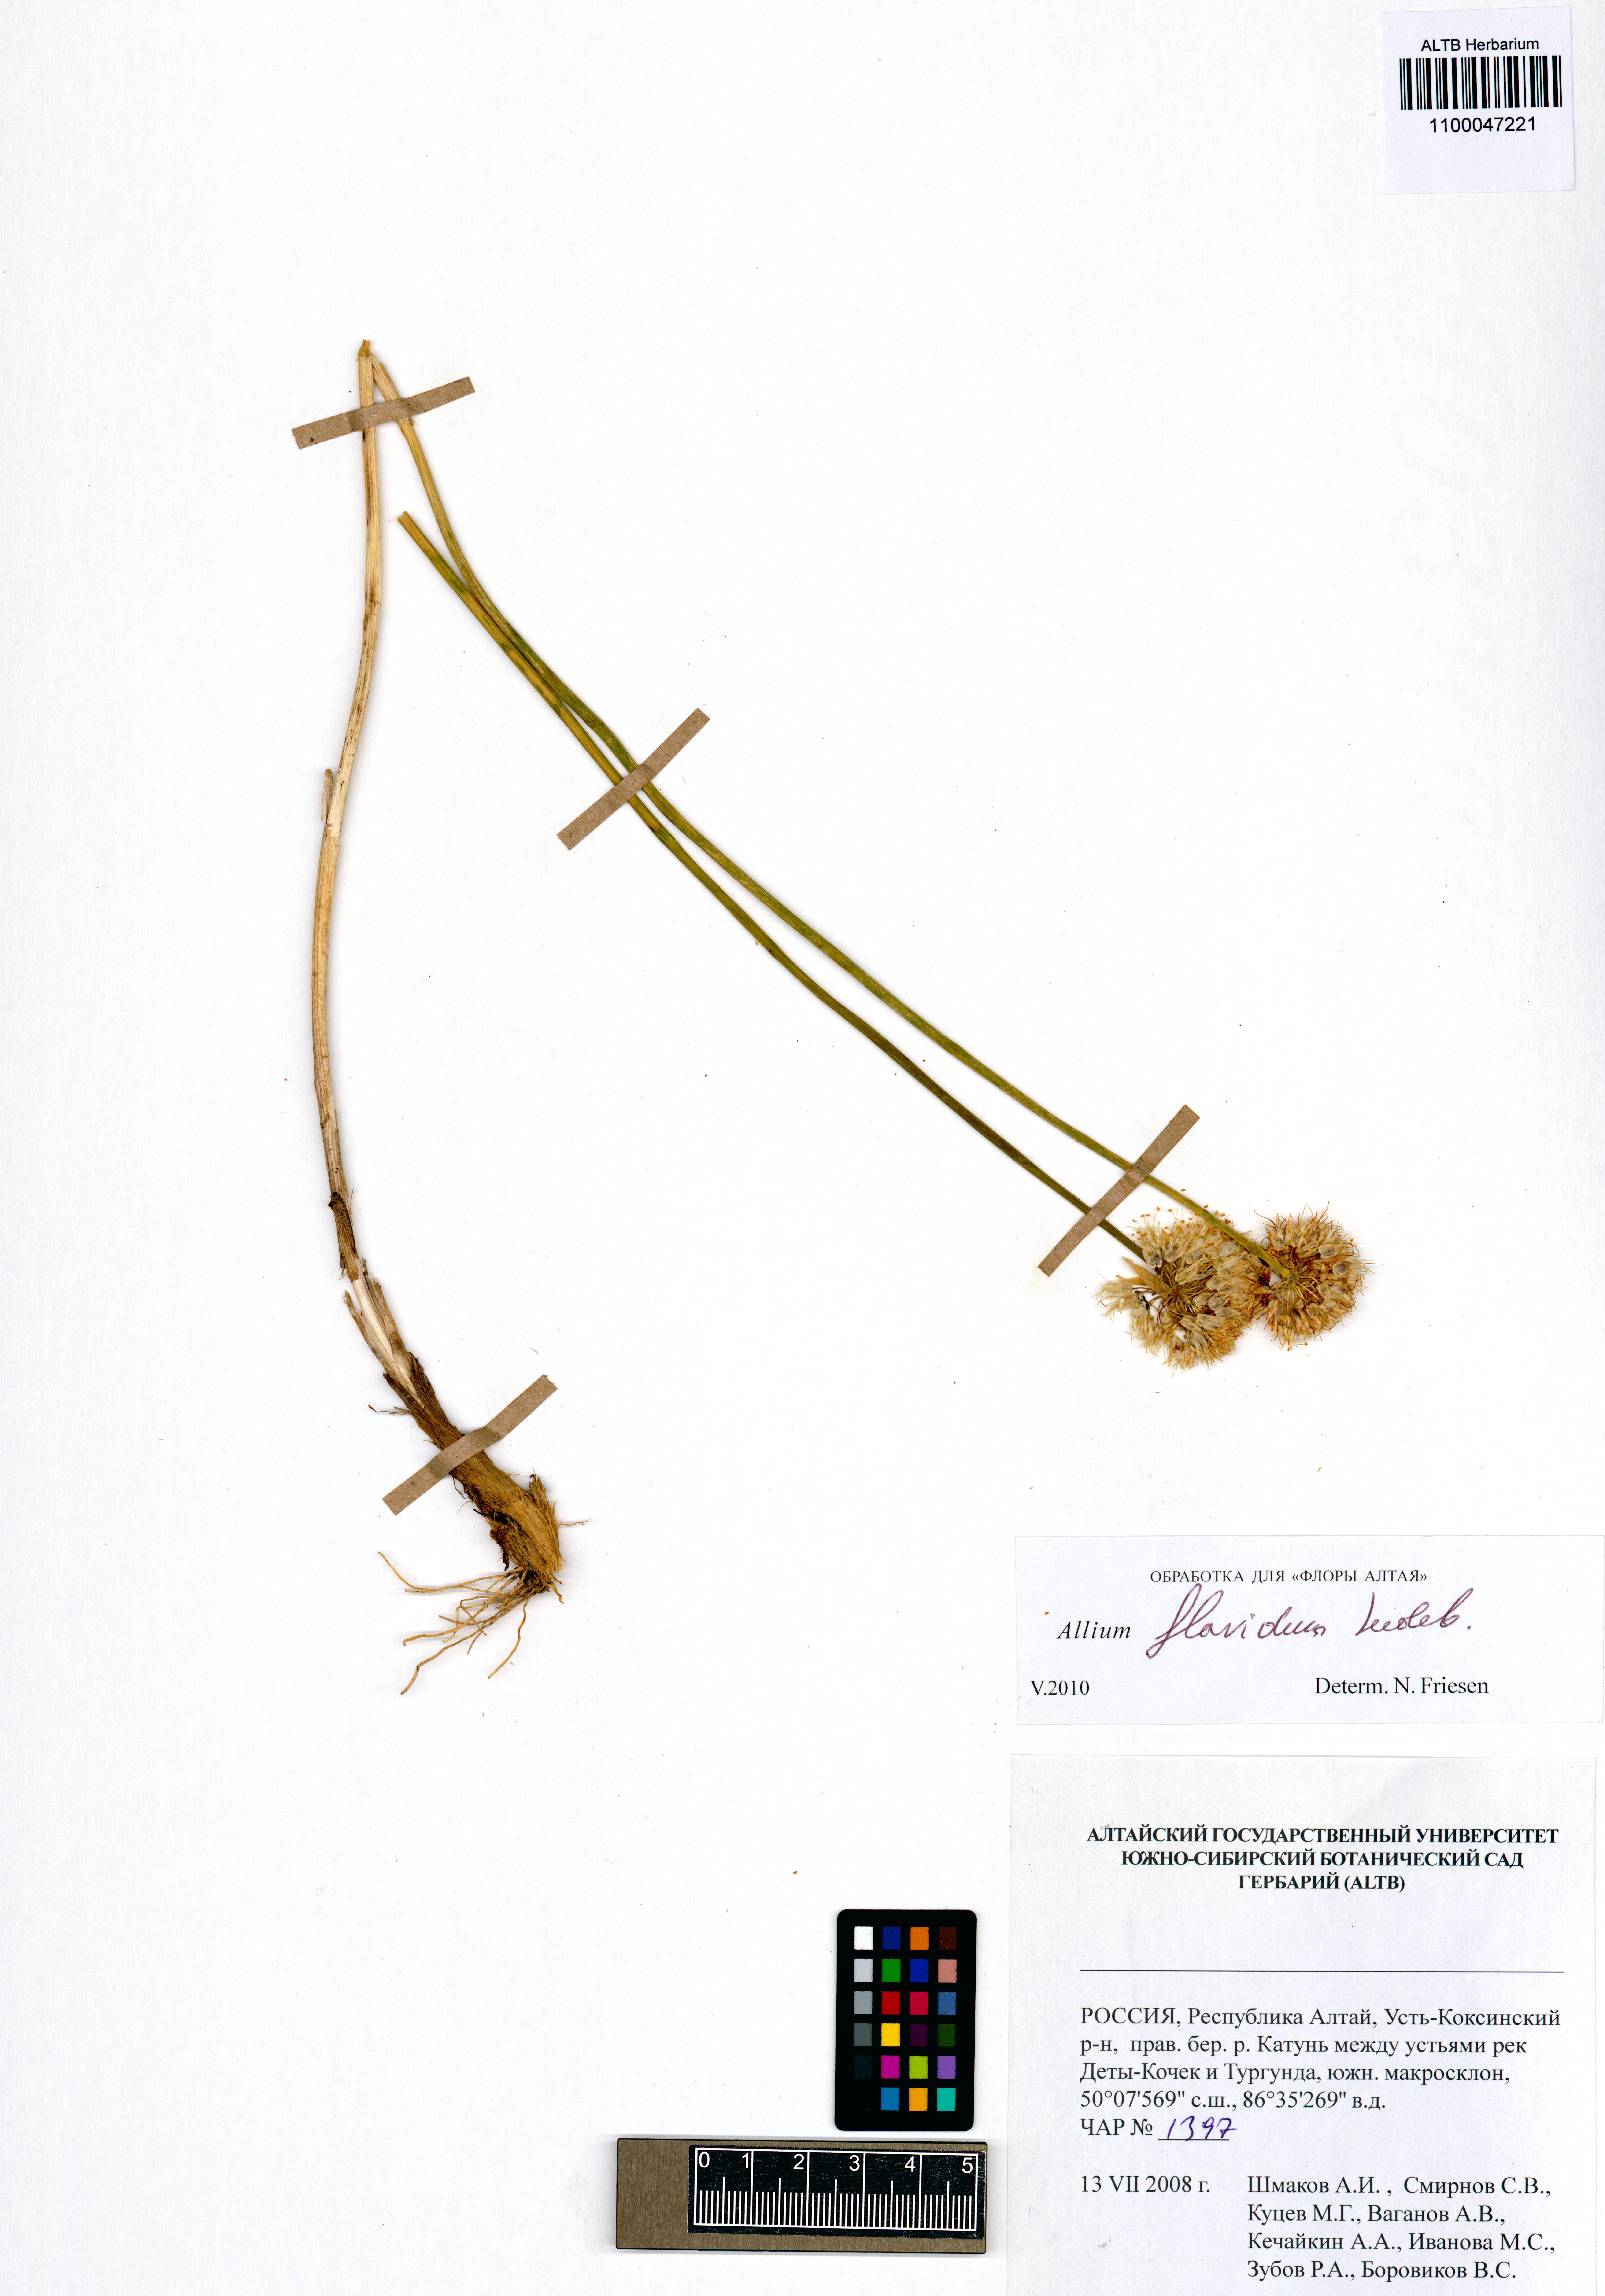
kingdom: Plantae
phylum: Tracheophyta
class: Liliopsida
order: Asparagales
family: Amaryllidaceae
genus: Allium
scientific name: Allium flavidum
